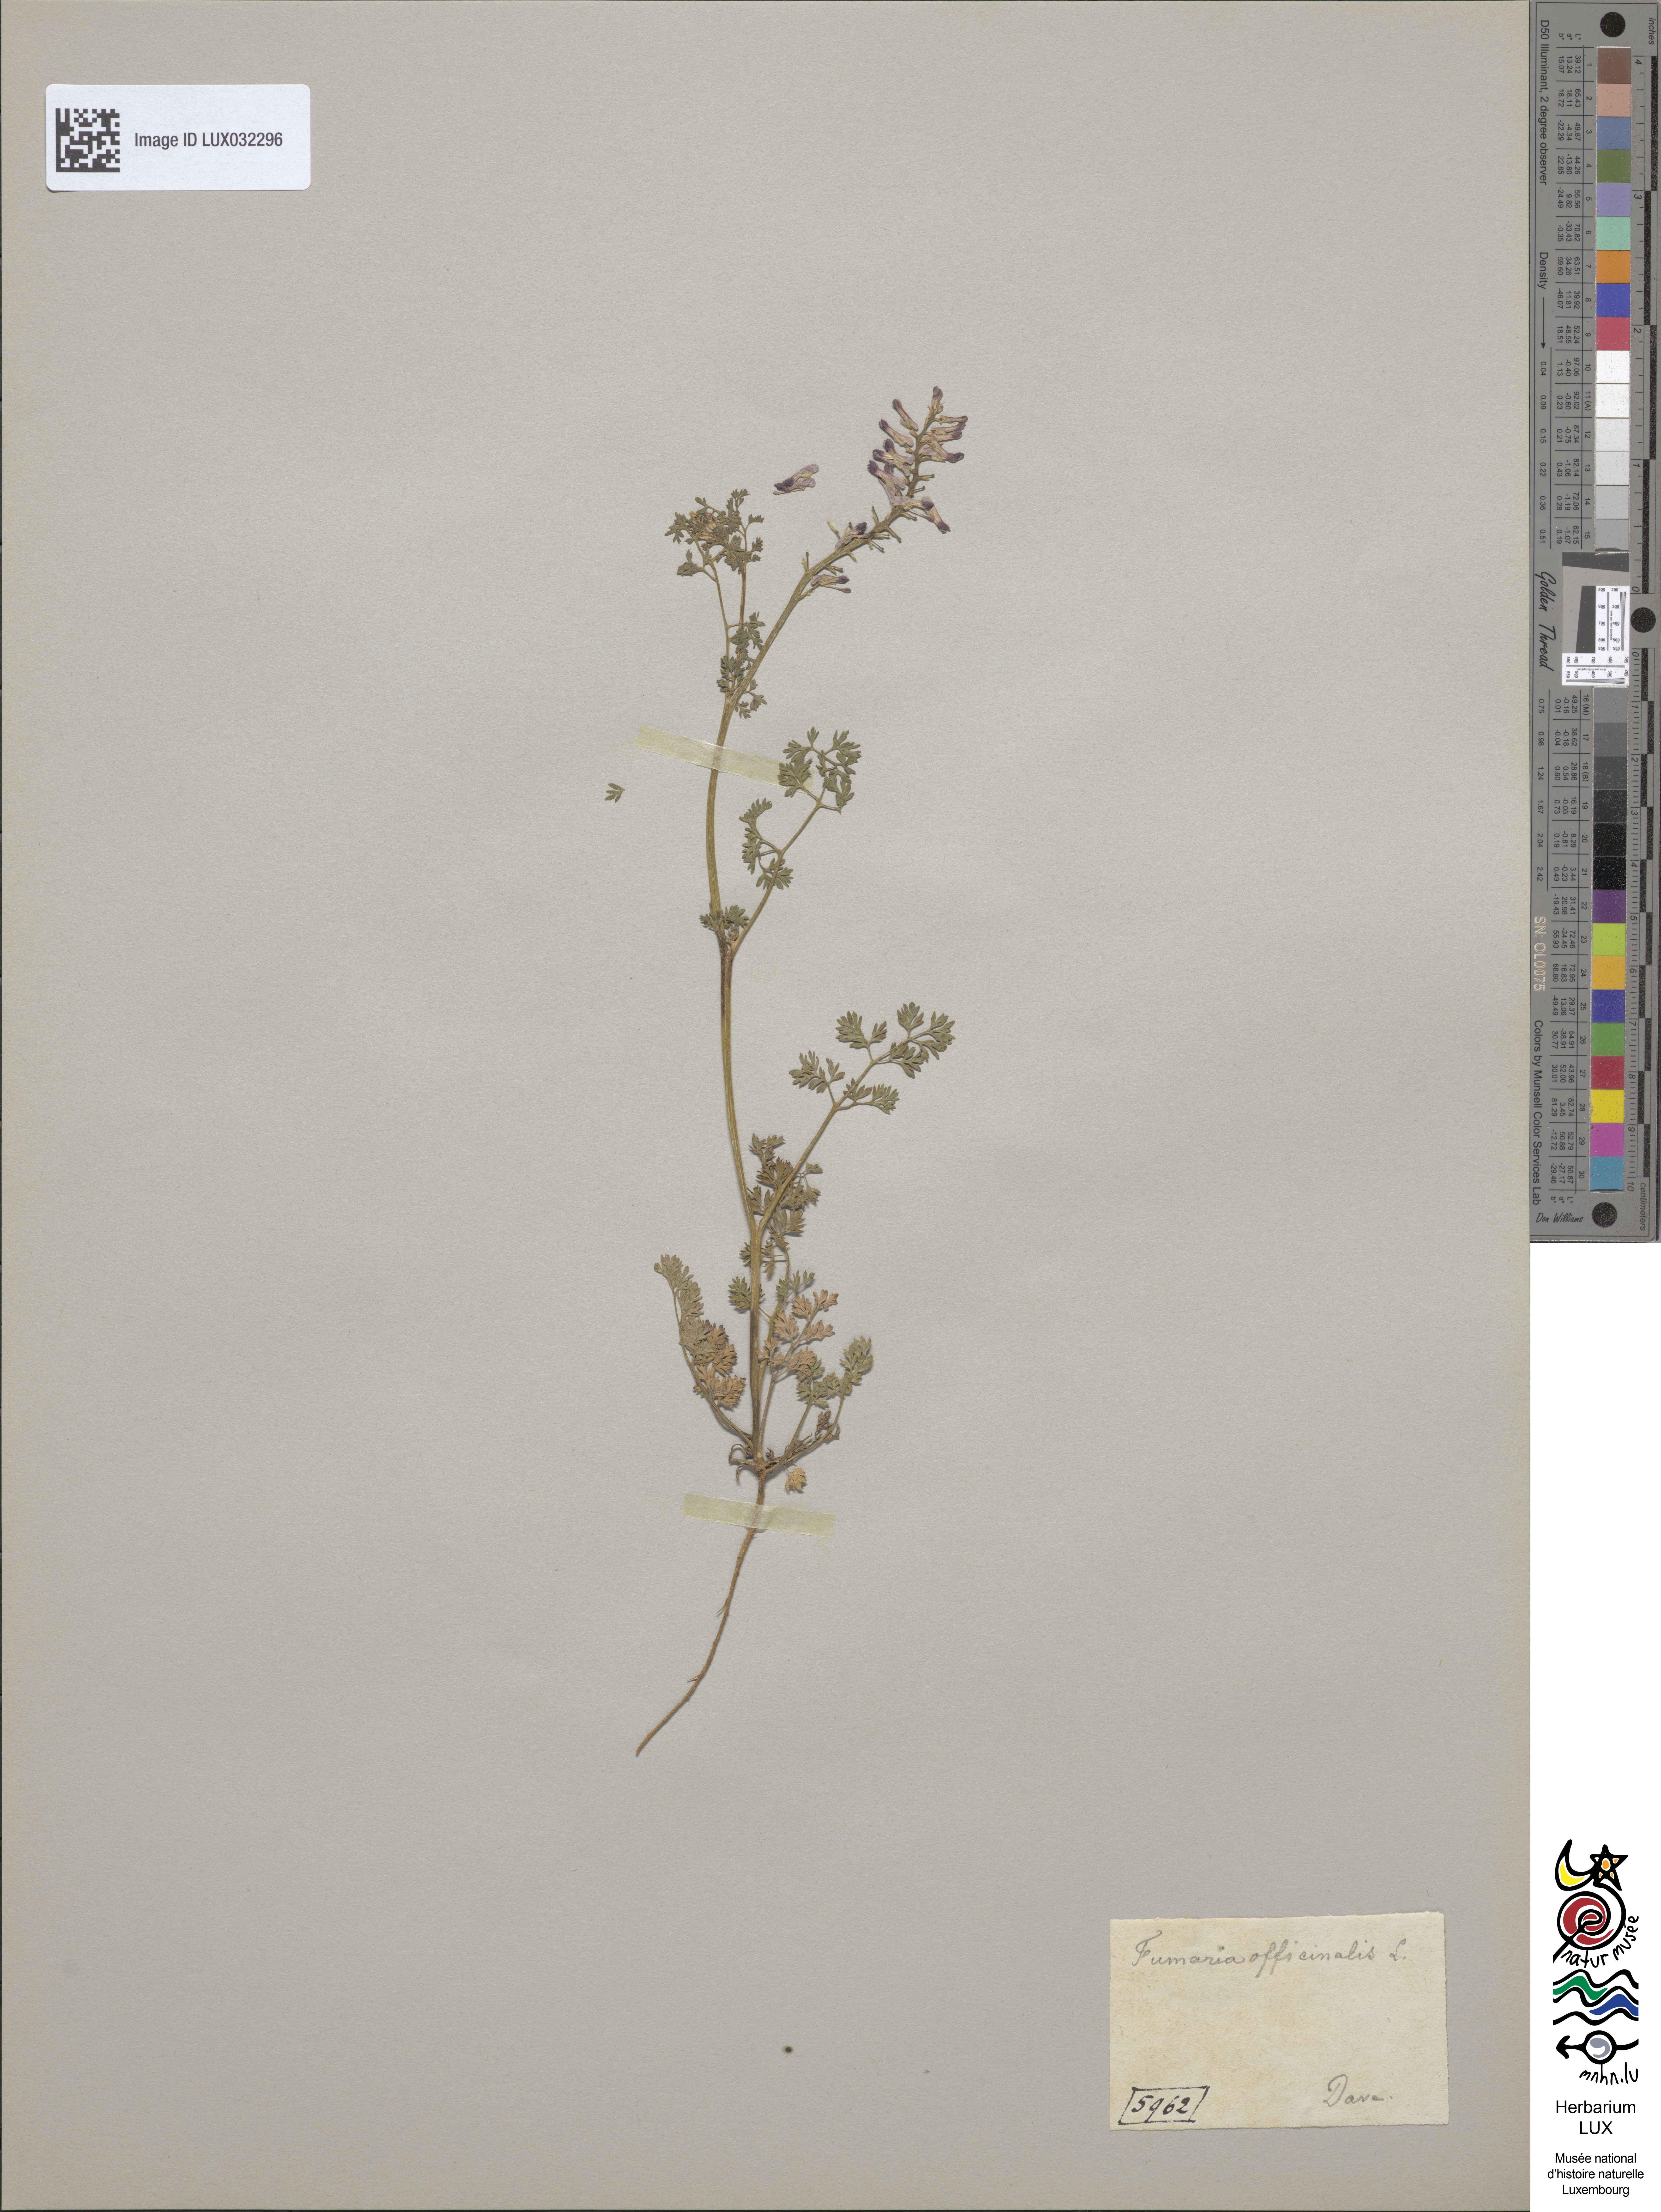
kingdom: Plantae
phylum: Tracheophyta
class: Magnoliopsida
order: Ranunculales
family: Papaveraceae
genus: Fumaria
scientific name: Fumaria officinalis
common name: Common fumitory
